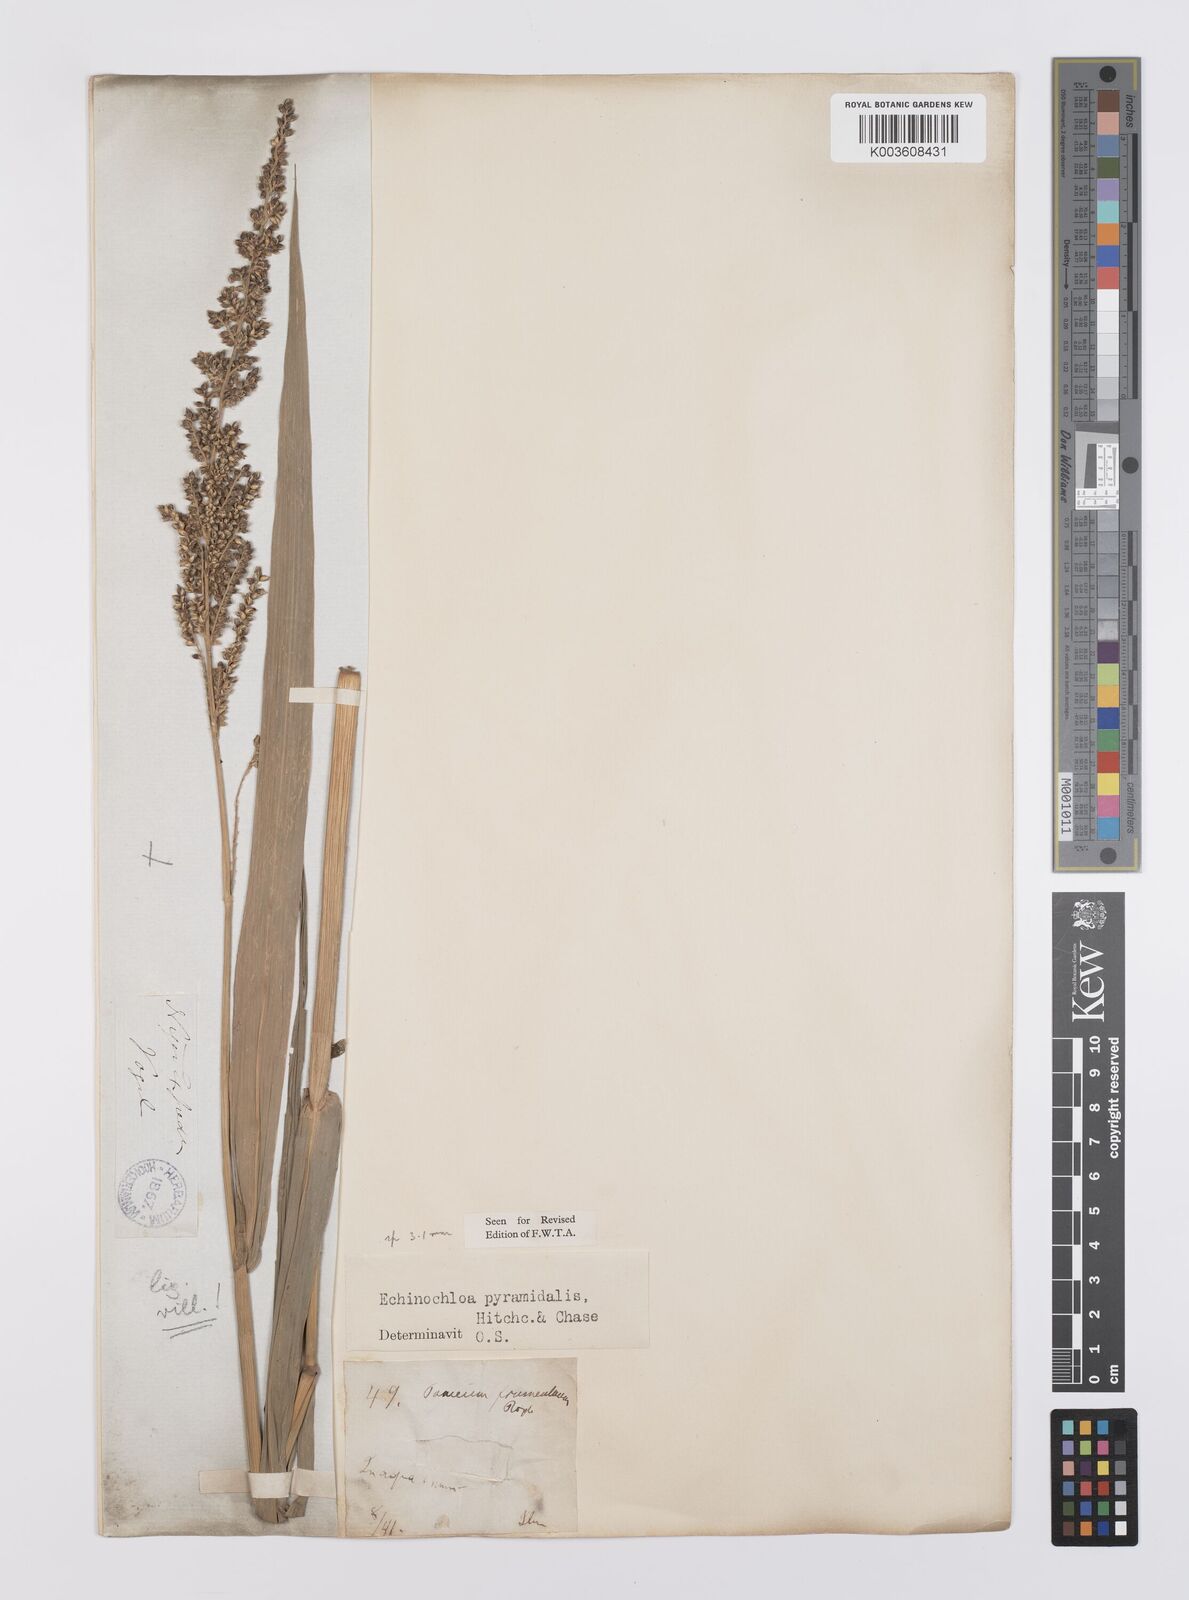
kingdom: Plantae
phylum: Tracheophyta
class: Liliopsida
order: Poales
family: Poaceae
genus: Echinochloa
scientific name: Echinochloa pyramidalis
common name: Antelope grass
